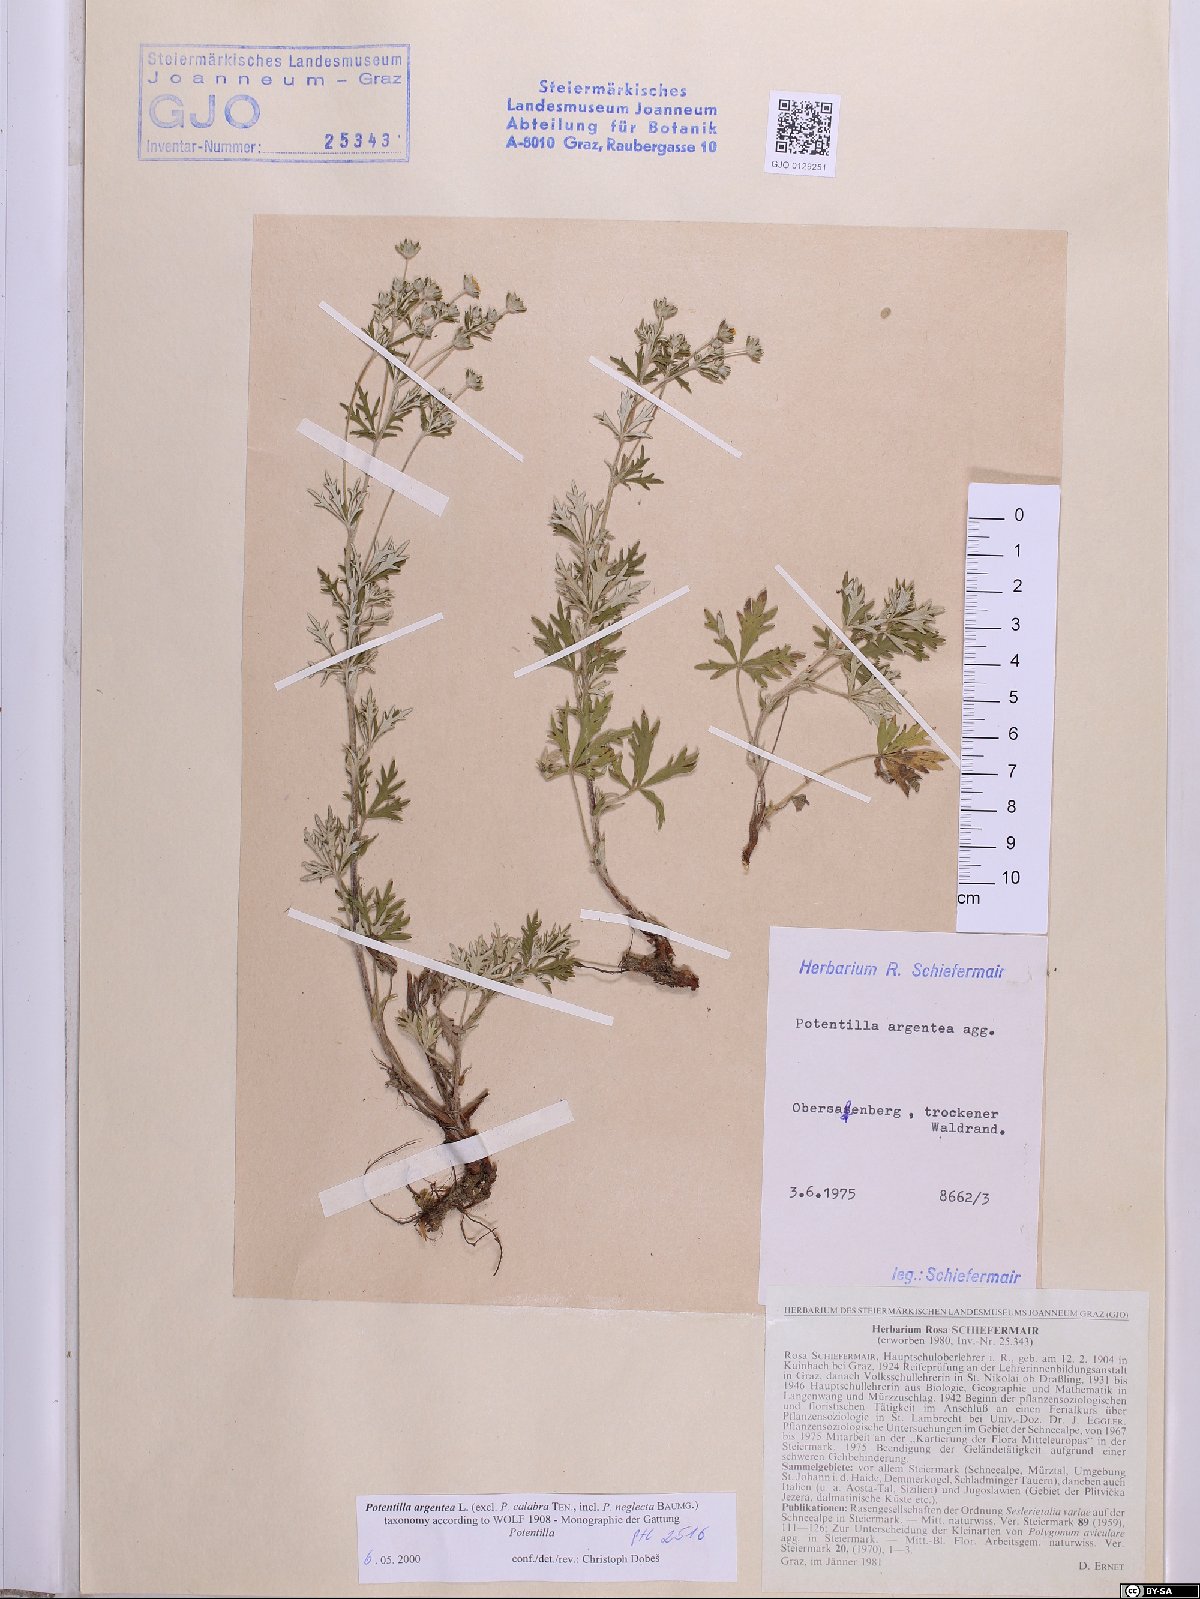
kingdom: Plantae
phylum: Tracheophyta
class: Magnoliopsida
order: Rosales
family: Rosaceae
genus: Potentilla
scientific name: Potentilla argentea
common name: Hoary cinquefoil
